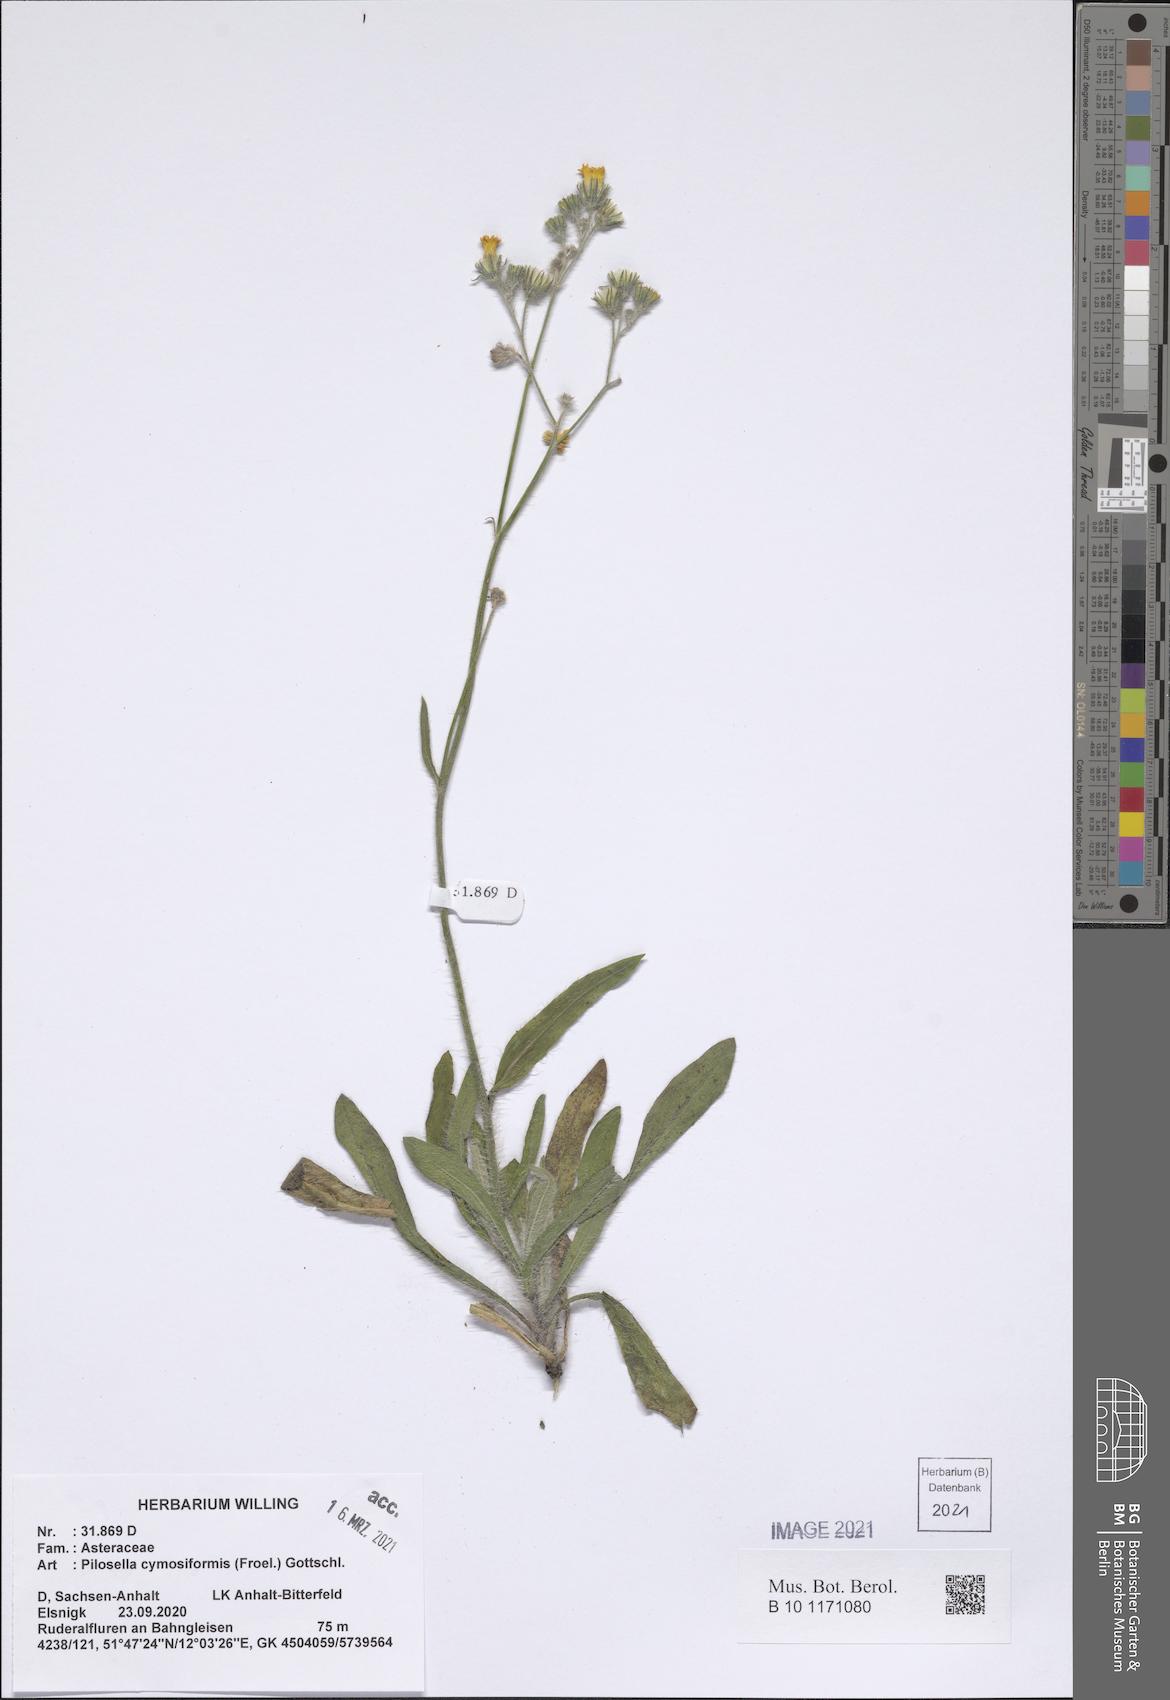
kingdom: Plantae
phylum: Tracheophyta
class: Magnoliopsida
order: Asterales
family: Asteraceae
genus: Pilosella
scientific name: Pilosella cymosiformis
